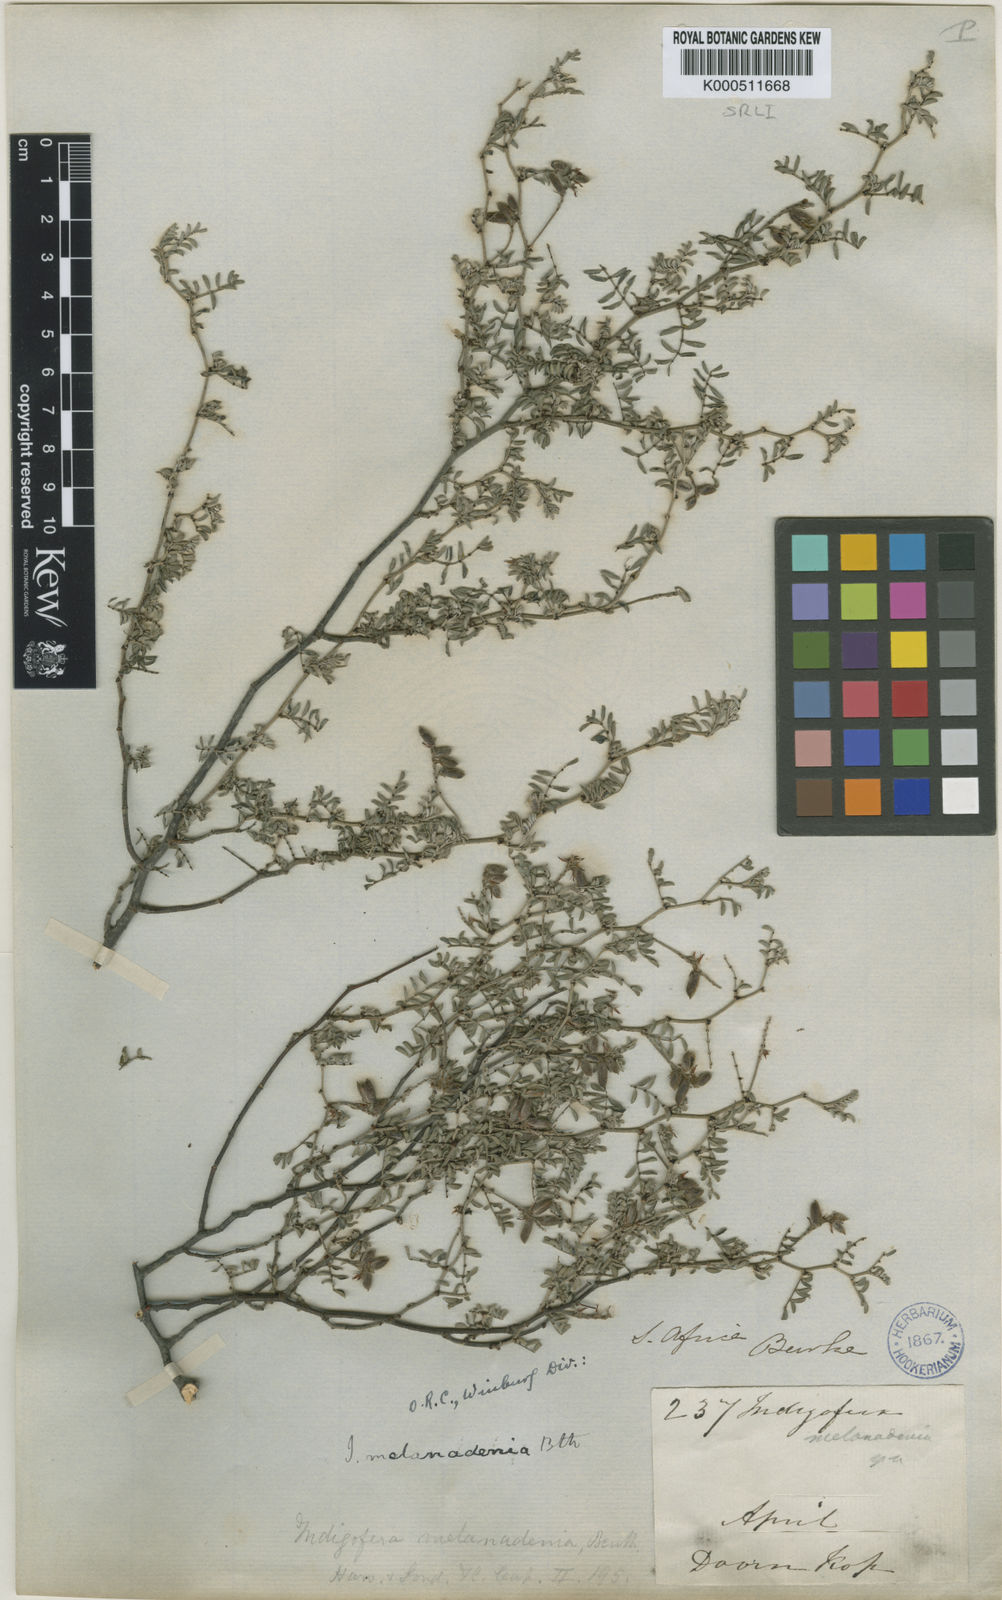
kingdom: Plantae
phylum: Tracheophyta
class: Magnoliopsida
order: Fabales
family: Fabaceae
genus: Indigofera
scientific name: Indigofera melanadenia
